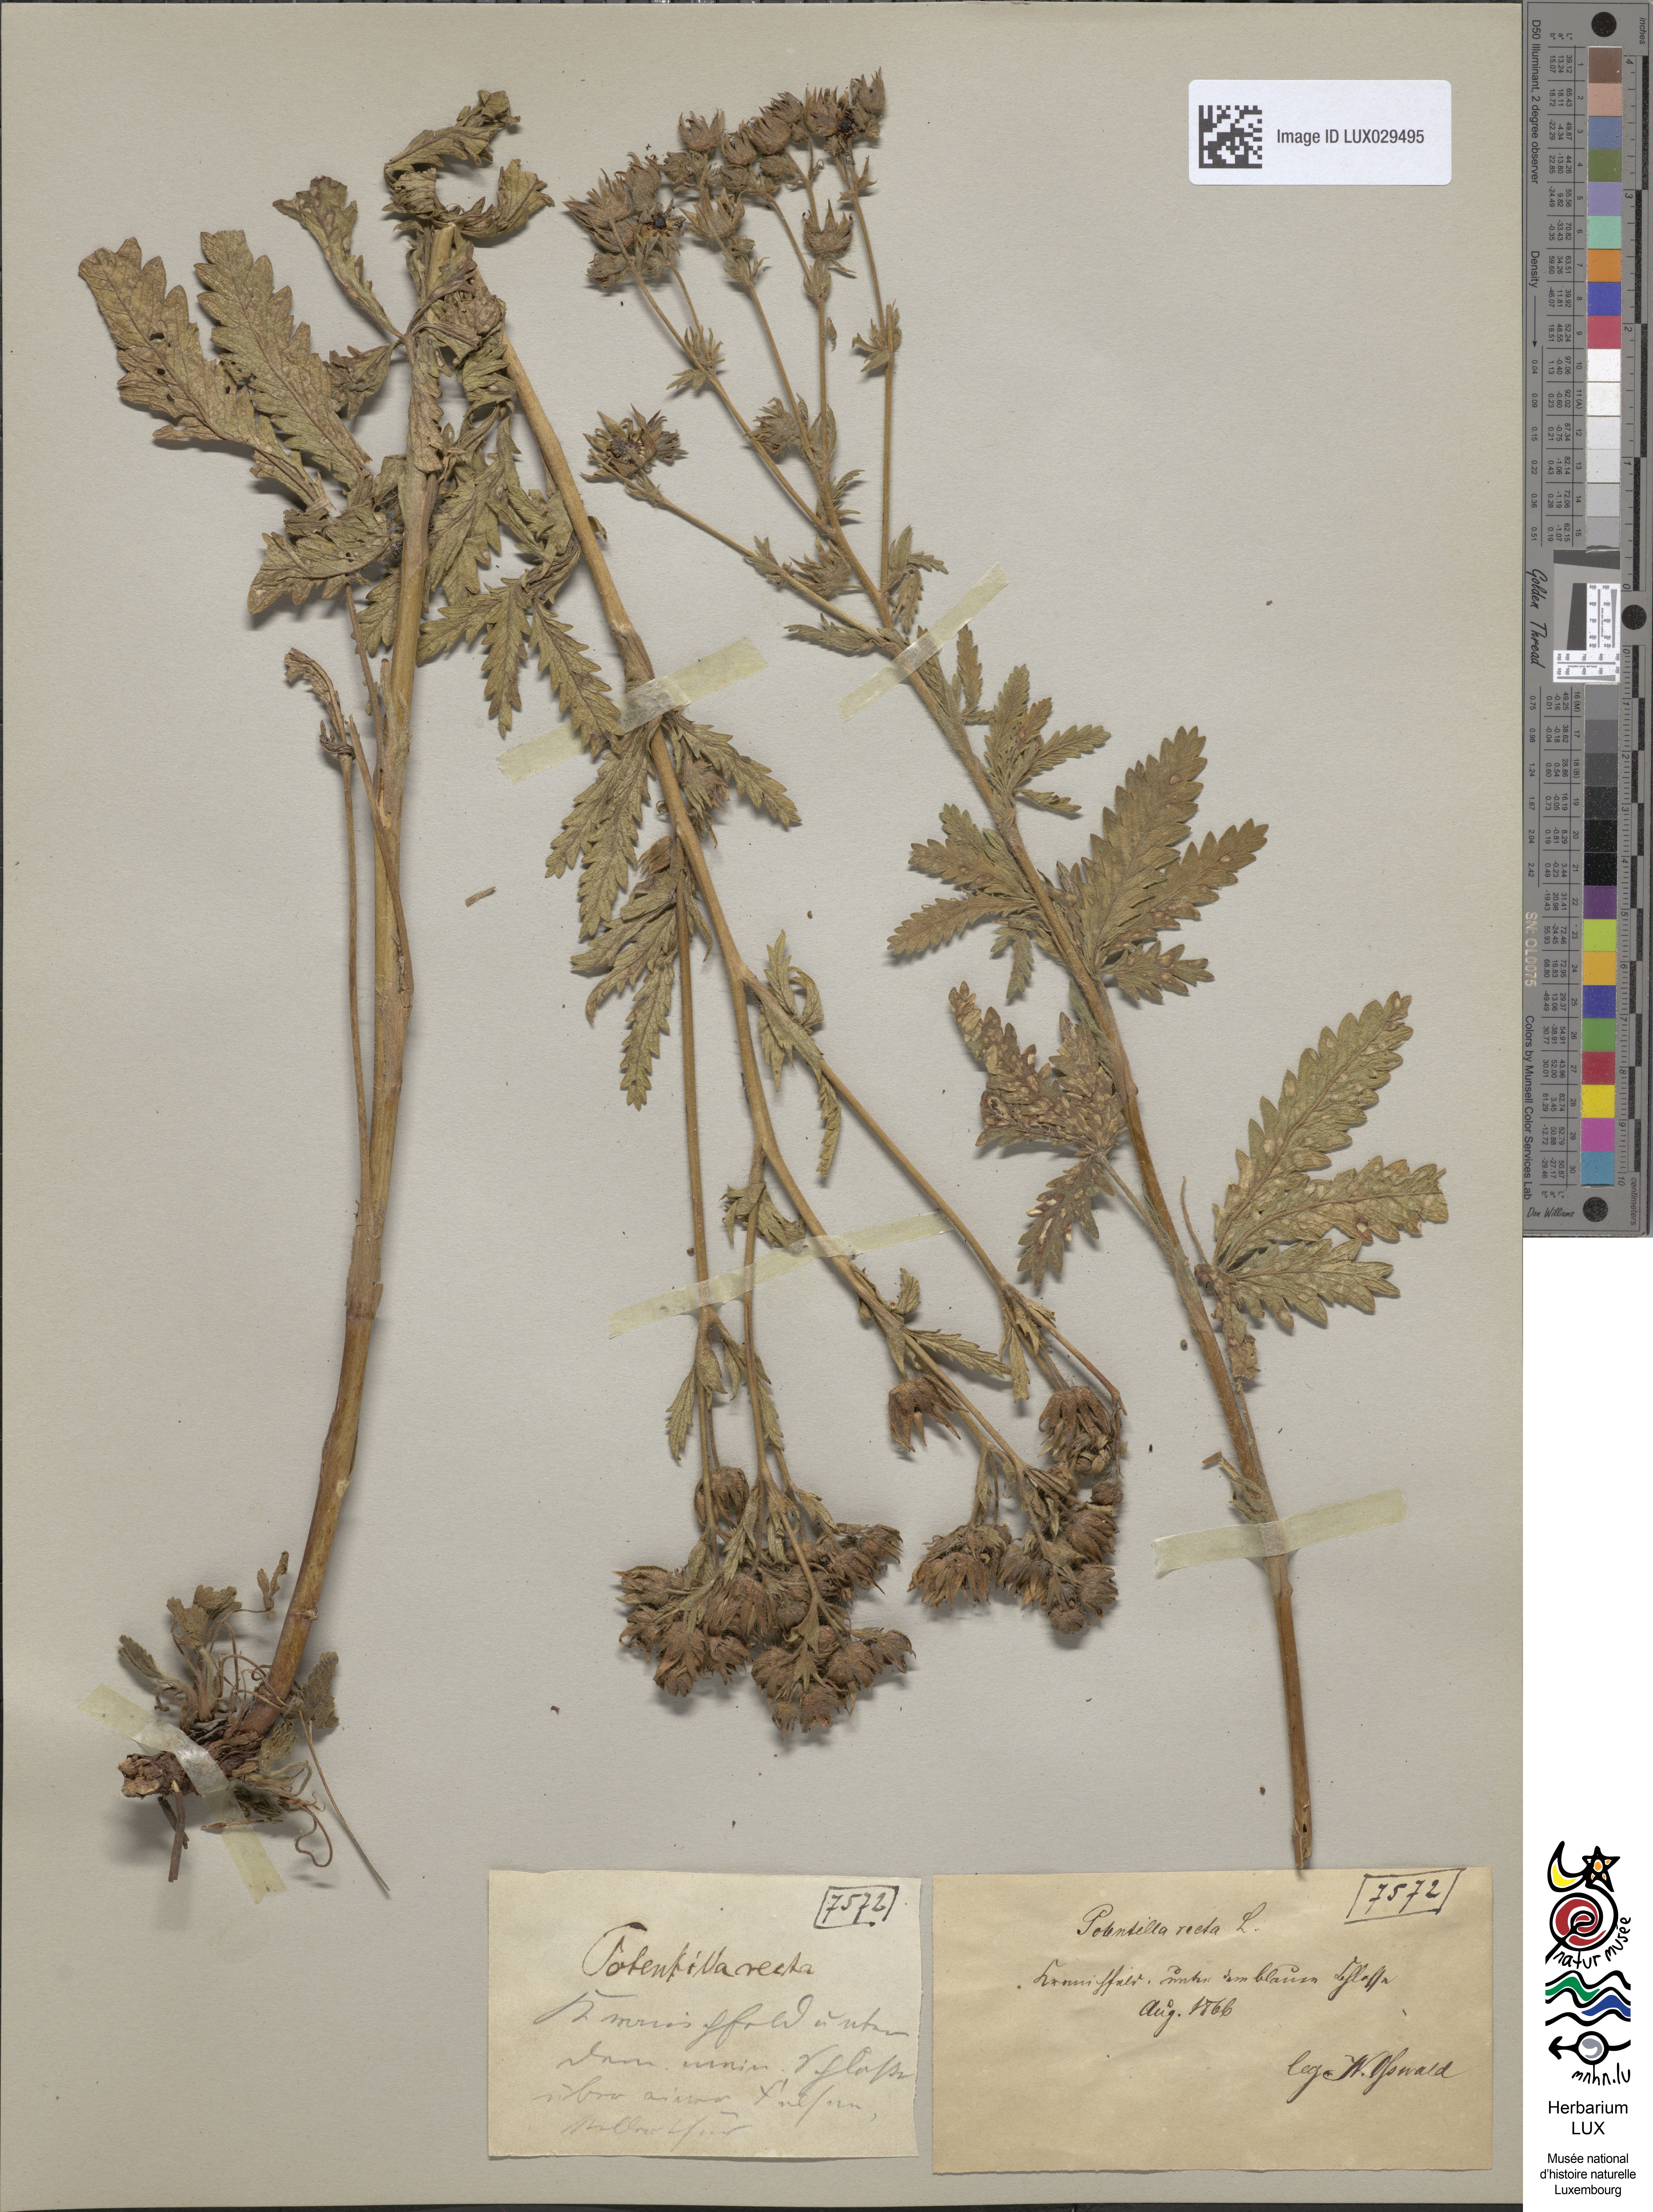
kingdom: Plantae
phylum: Tracheophyta
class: Magnoliopsida
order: Rosales
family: Rosaceae
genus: Potentilla
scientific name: Potentilla recta
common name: Sulphur cinquefoil
